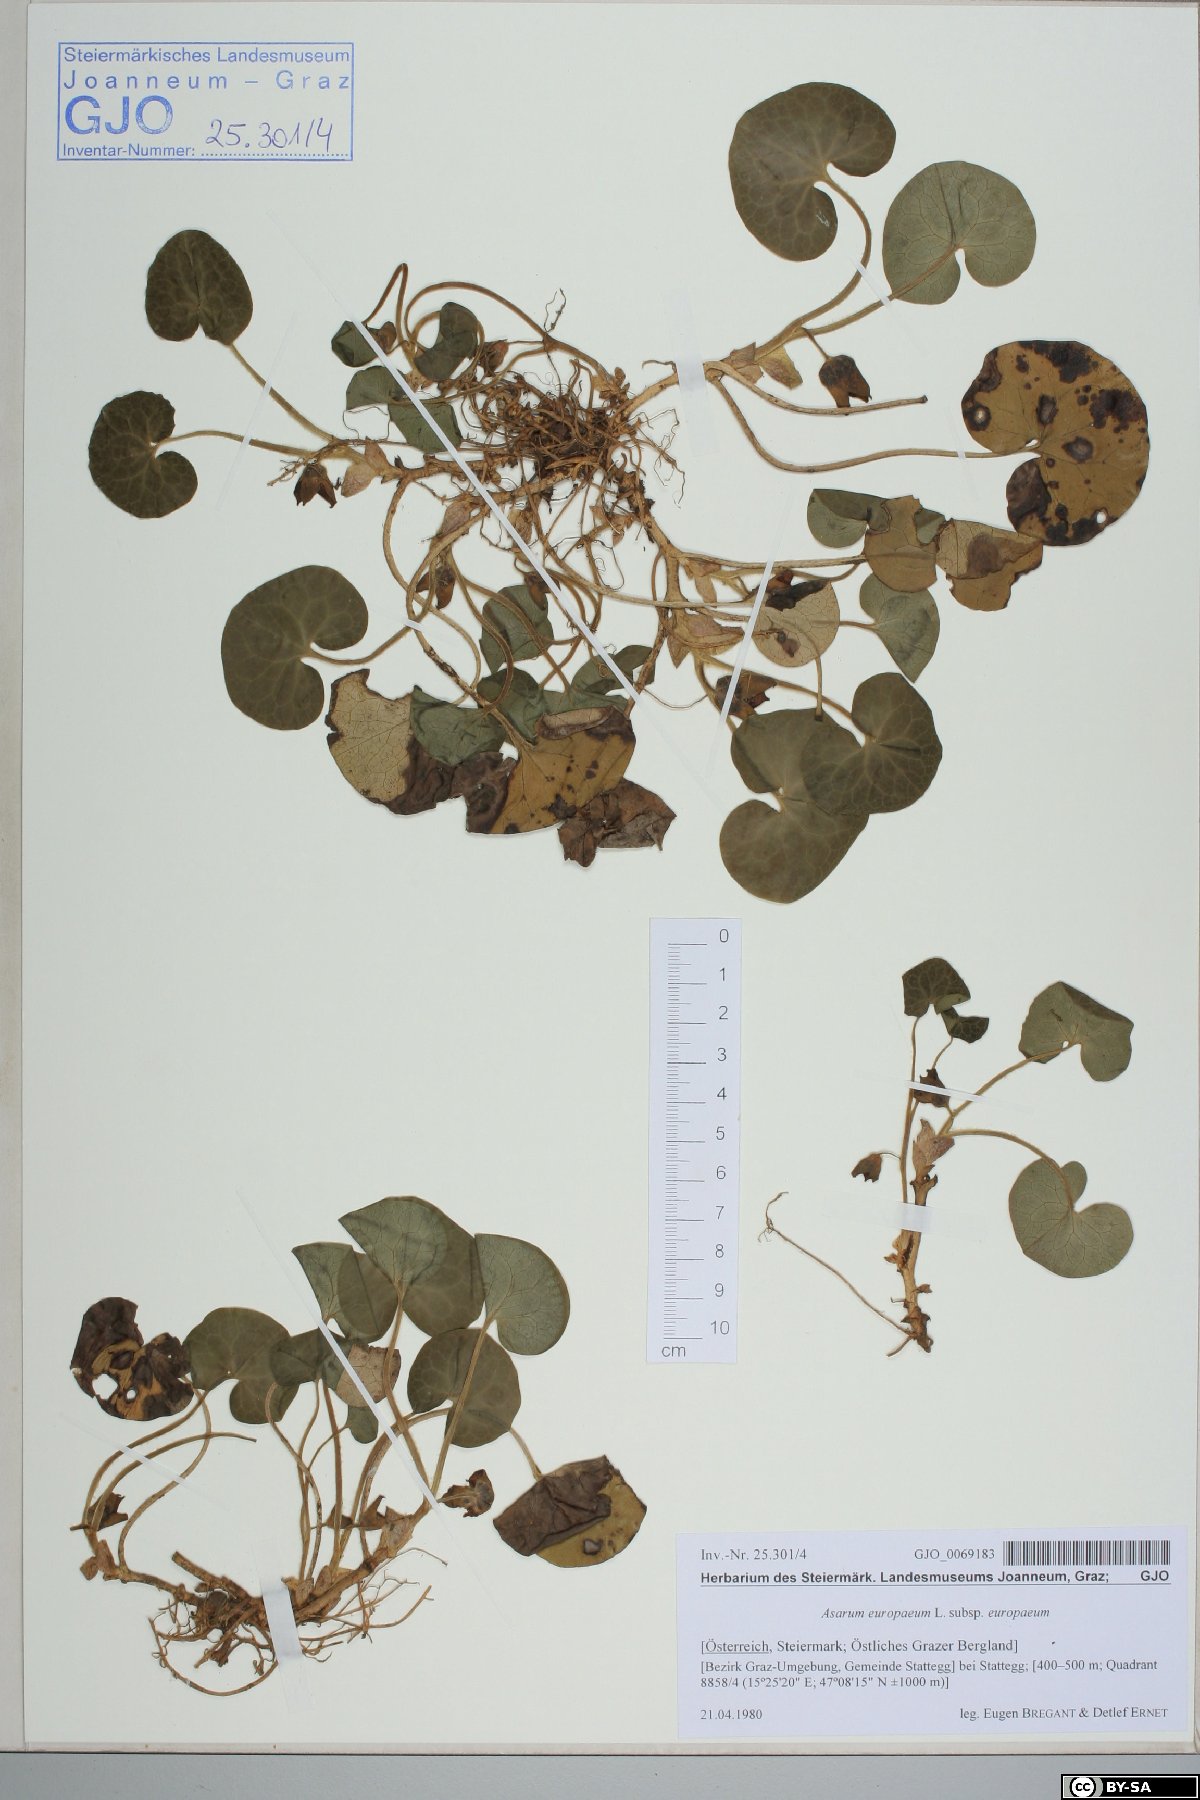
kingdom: Plantae
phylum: Tracheophyta
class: Magnoliopsida
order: Piperales
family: Aristolochiaceae
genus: Asarum
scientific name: Asarum europaeum
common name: Asarabacca
